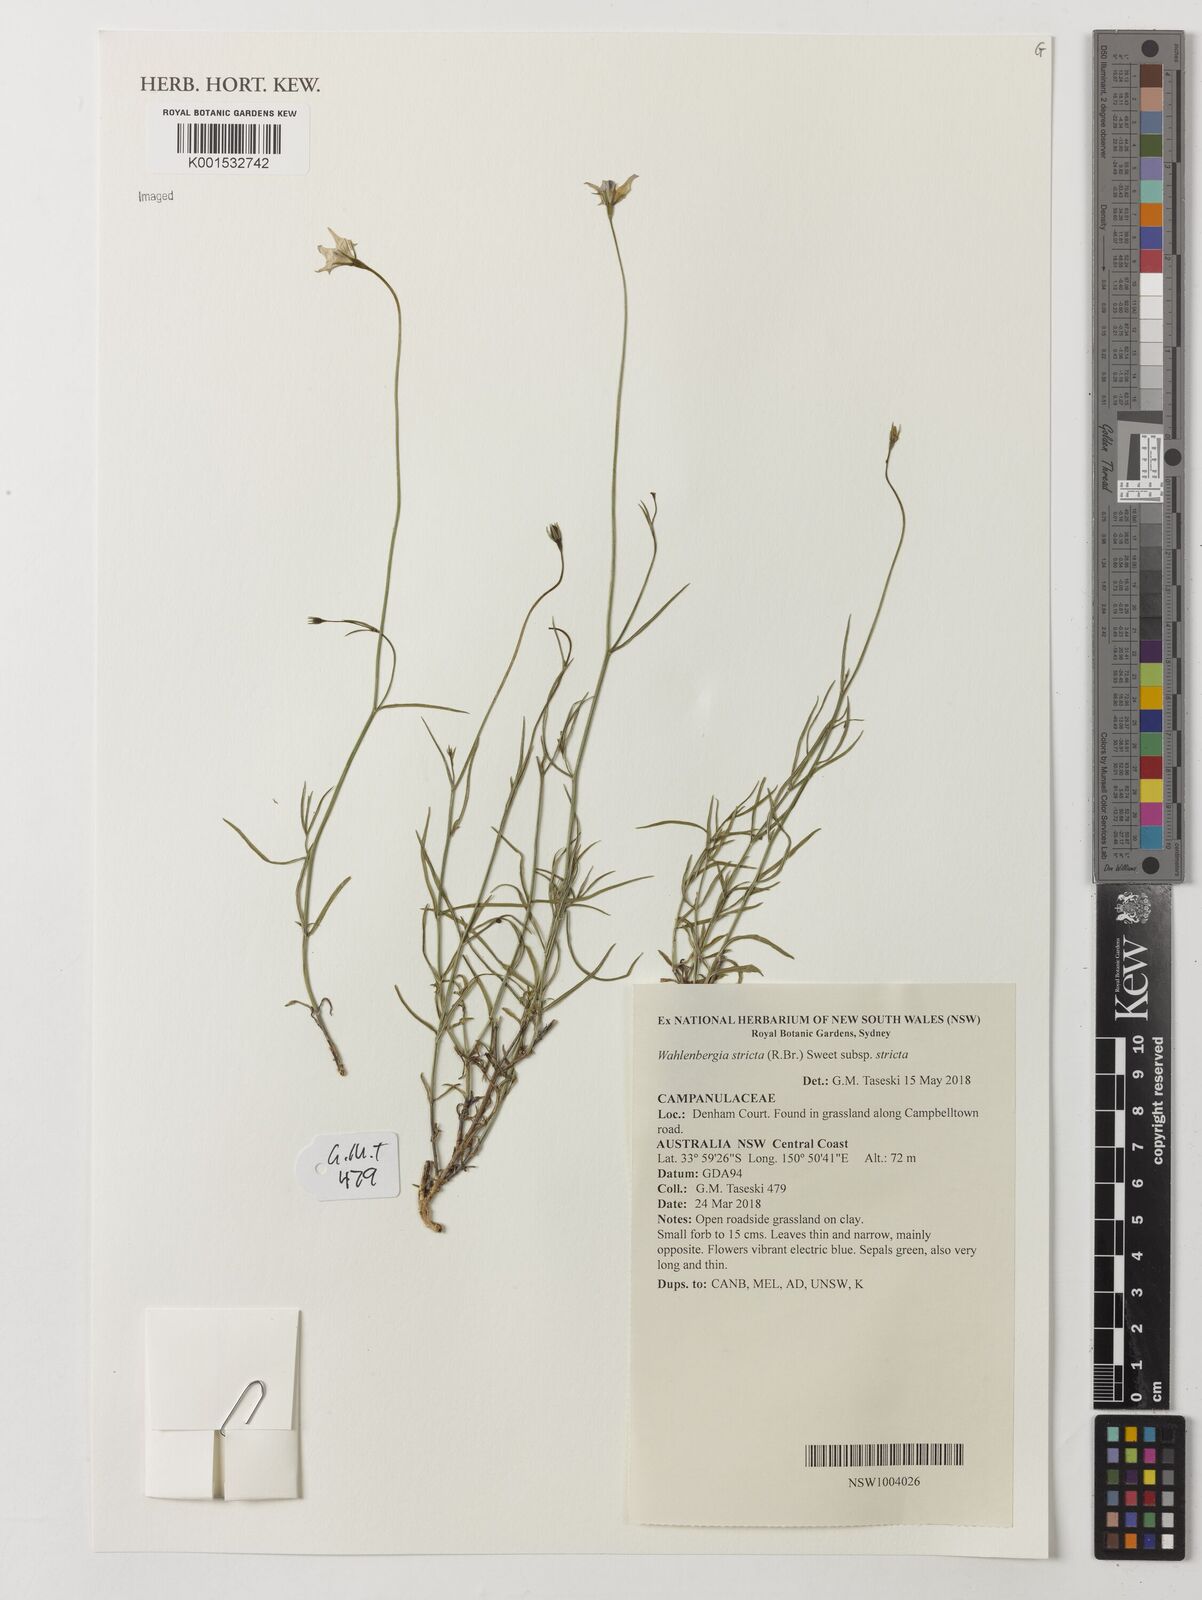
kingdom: Plantae
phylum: Tracheophyta
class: Magnoliopsida
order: Asterales
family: Campanulaceae
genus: Wahlenbergia
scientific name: Wahlenbergia stricta
